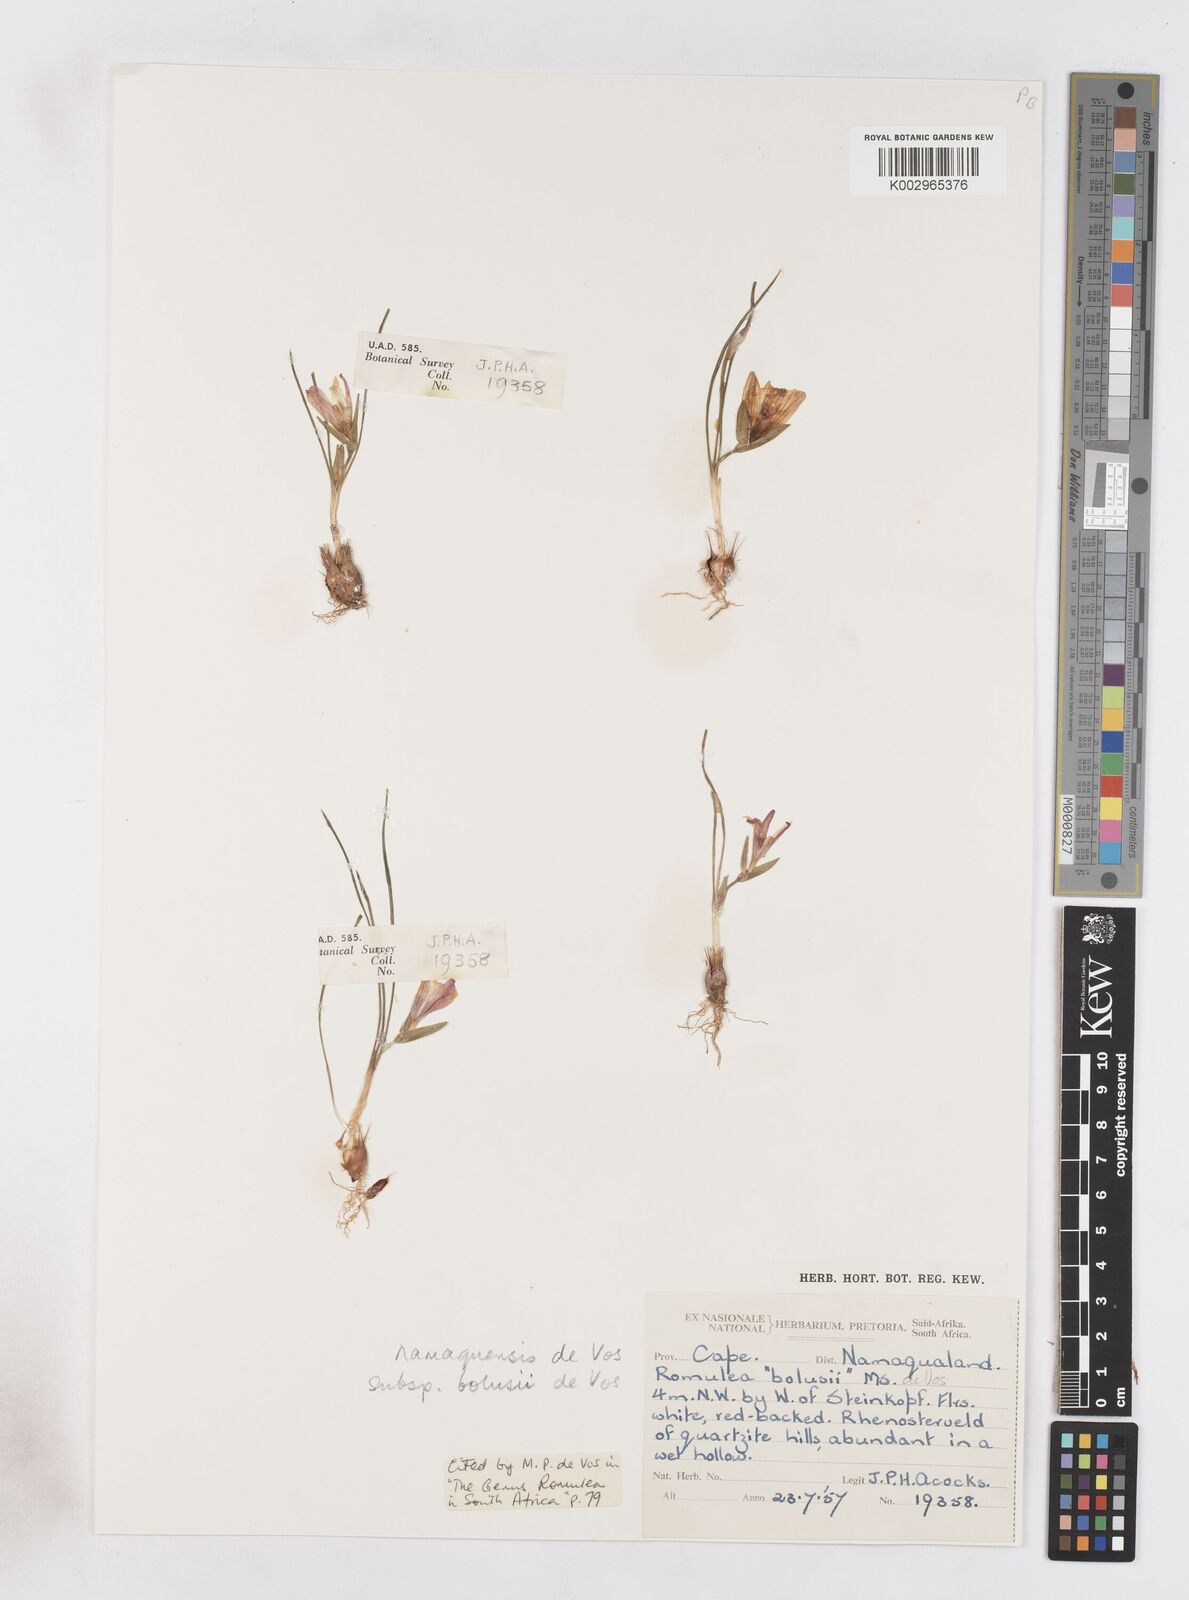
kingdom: Plantae
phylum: Tracheophyta
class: Liliopsida
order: Asparagales
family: Iridaceae
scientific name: Iridaceae
